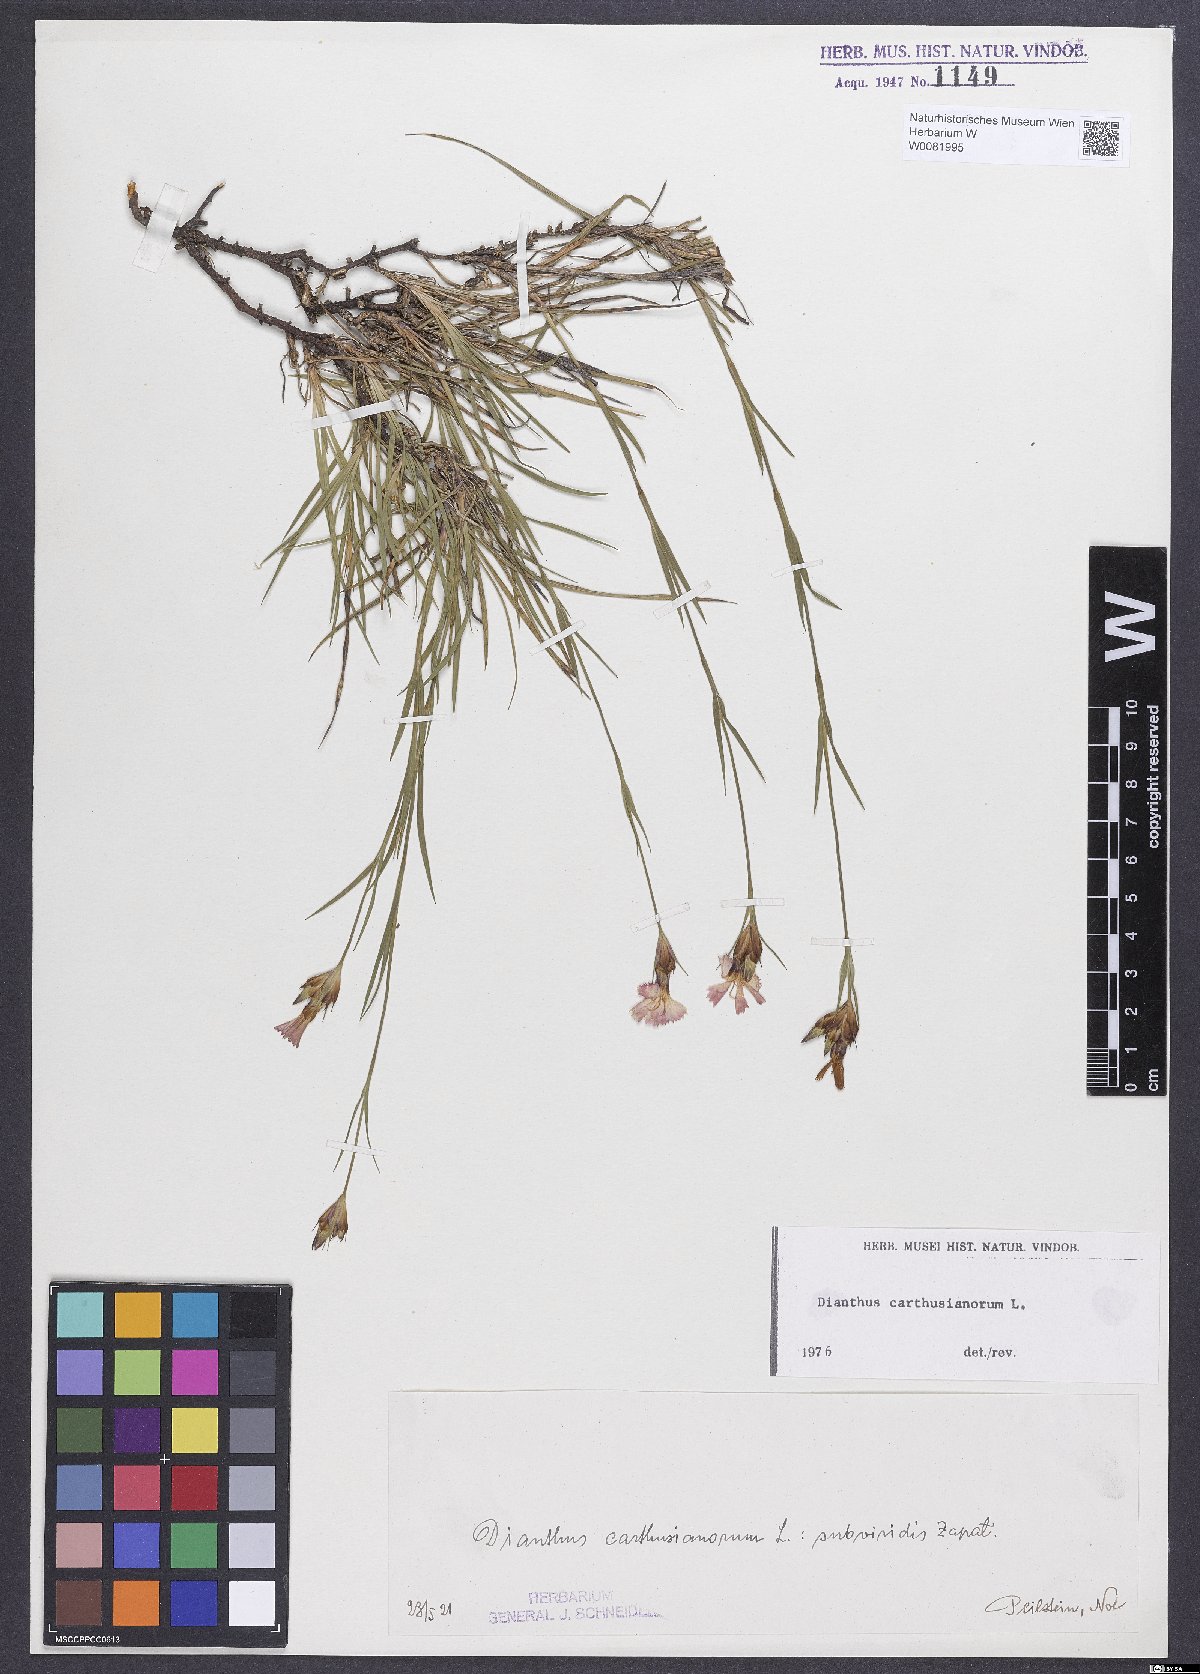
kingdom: Plantae
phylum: Tracheophyta
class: Magnoliopsida
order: Caryophyllales
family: Caryophyllaceae
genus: Dianthus
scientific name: Dianthus carthusianorum
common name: Carthusian pink
